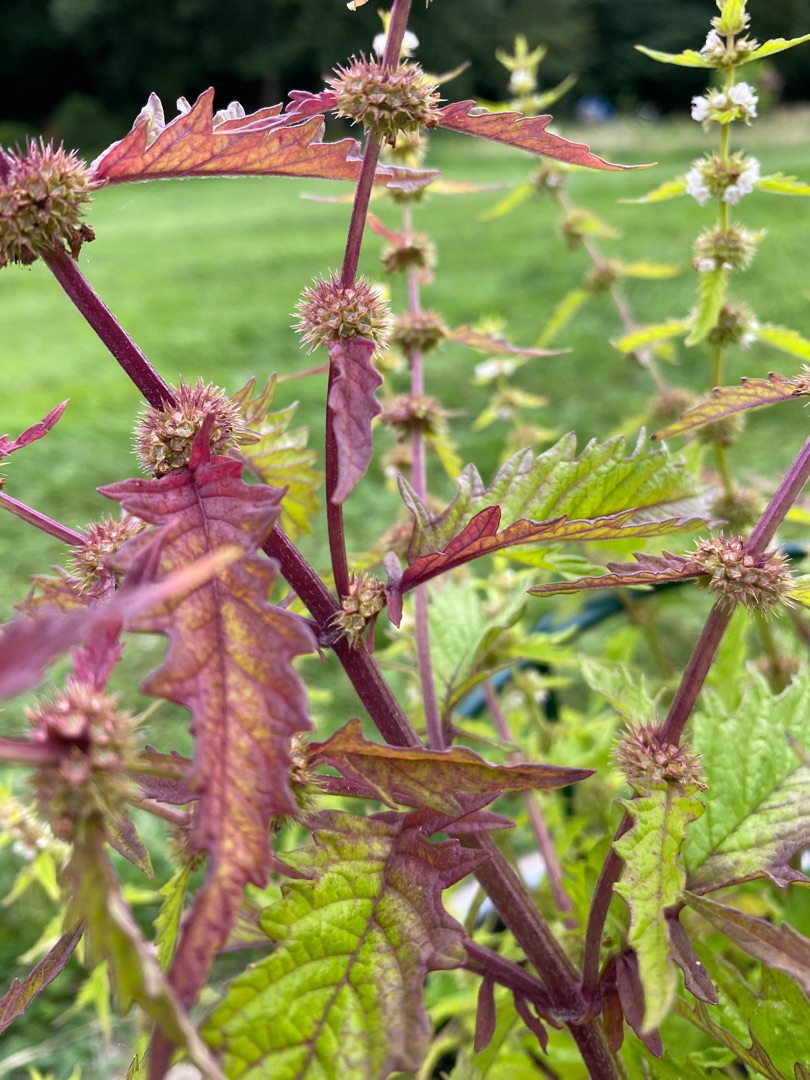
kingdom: Plantae
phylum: Tracheophyta
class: Magnoliopsida
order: Lamiales
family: Lamiaceae
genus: Lycopus
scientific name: Lycopus europaeus
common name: Sværtevæld
